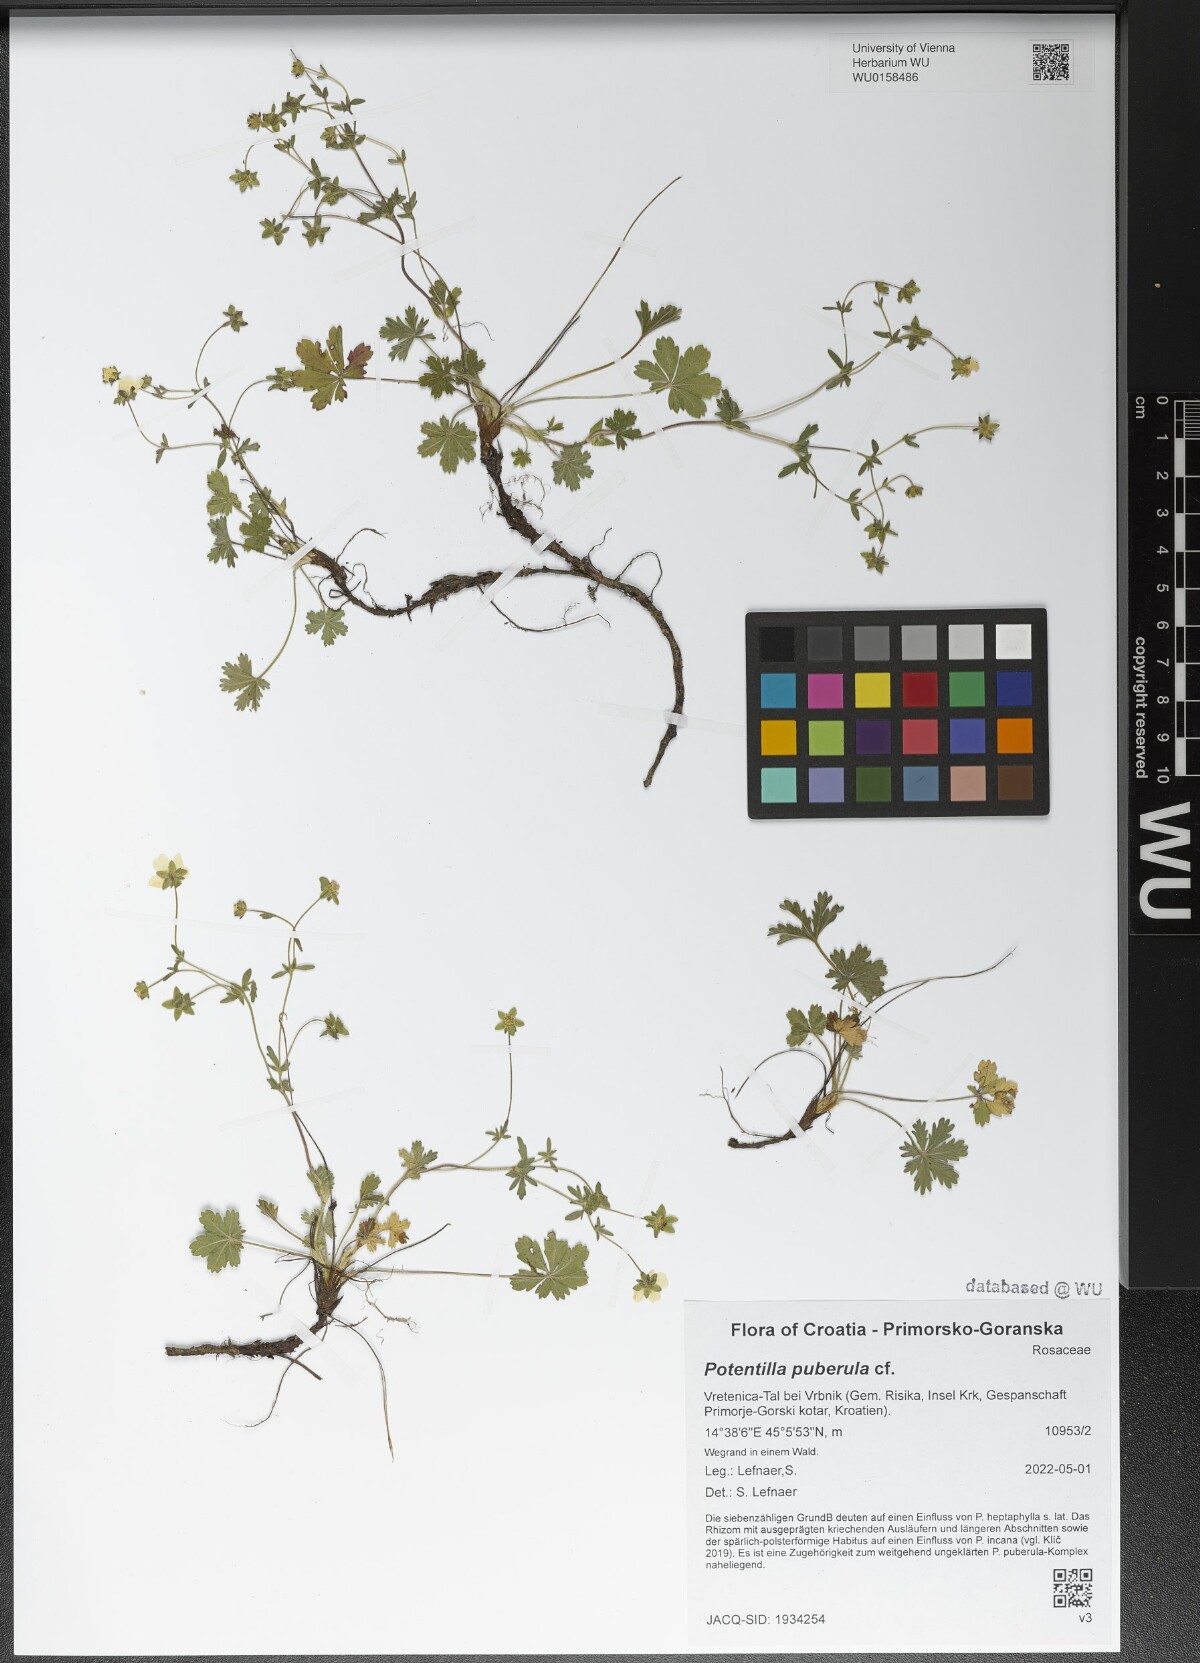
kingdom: Plantae
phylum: Tracheophyta
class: Magnoliopsida
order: Rosales
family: Rosaceae
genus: Potentilla
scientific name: Potentilla pusilla
